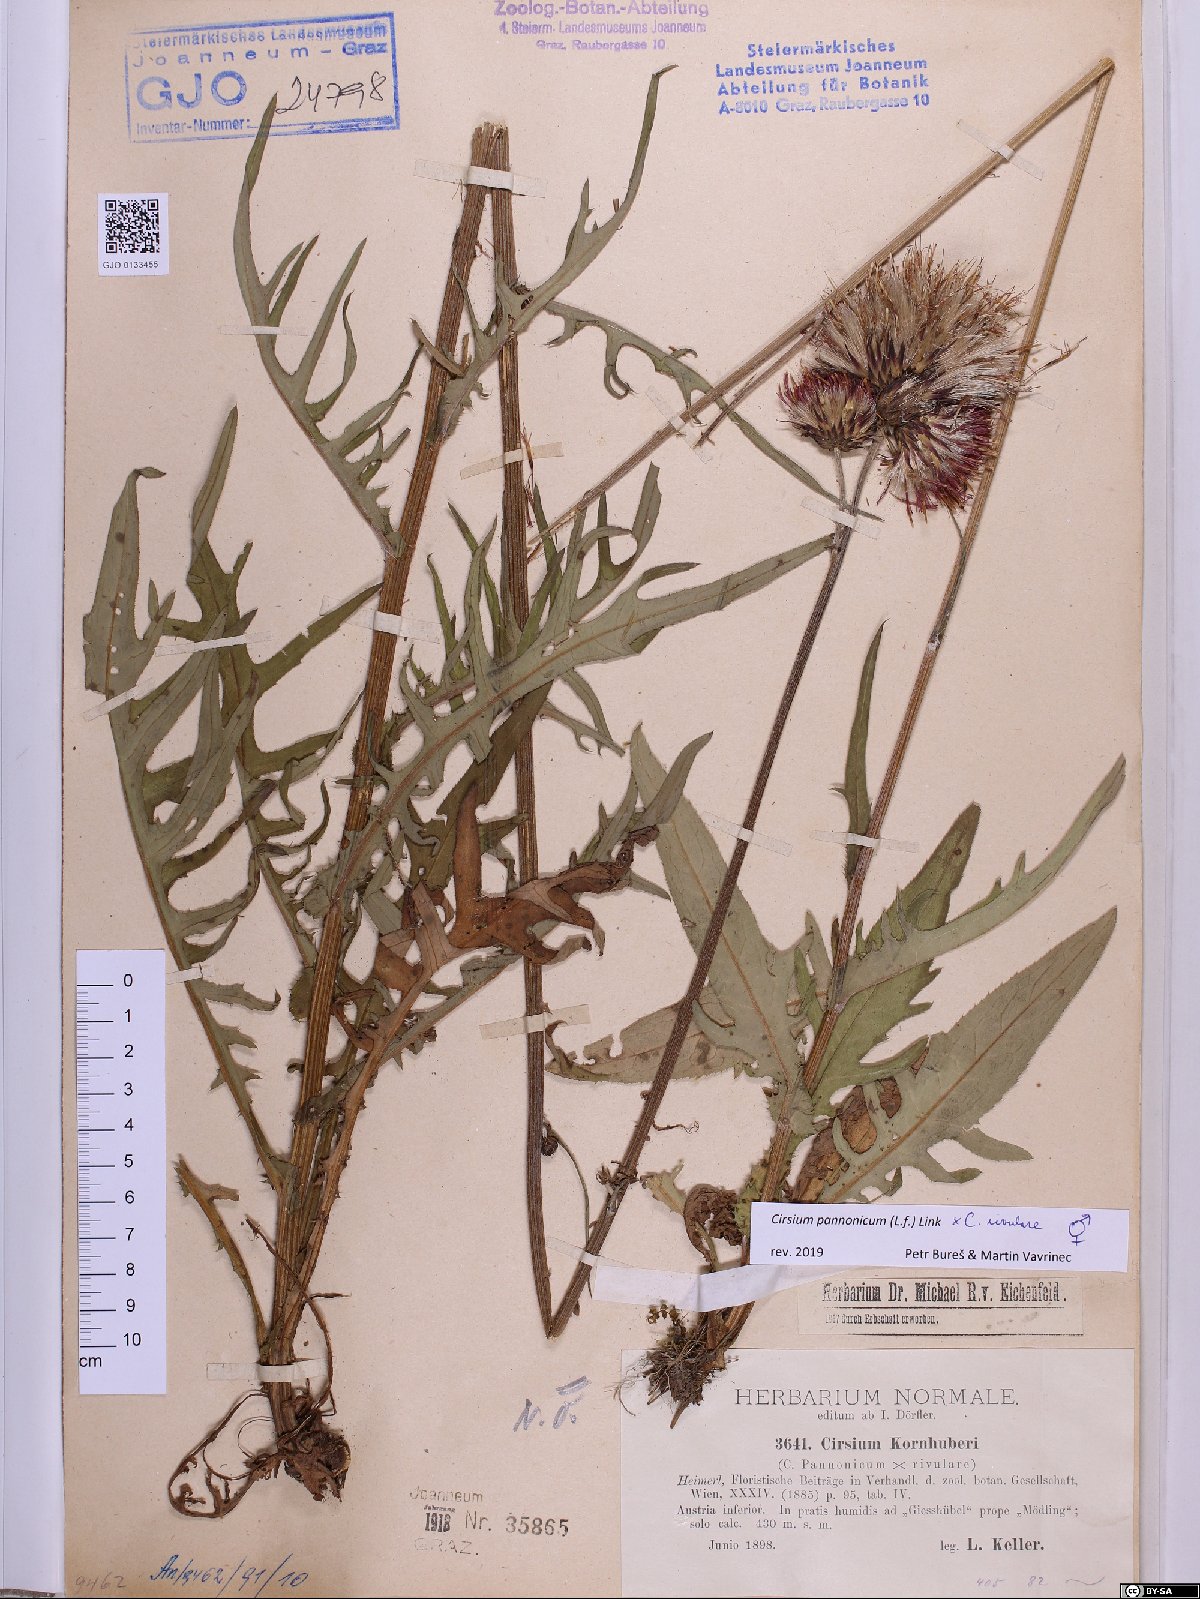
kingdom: Plantae
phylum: Tracheophyta
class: Magnoliopsida
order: Asterales
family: Asteraceae
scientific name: Asteraceae
